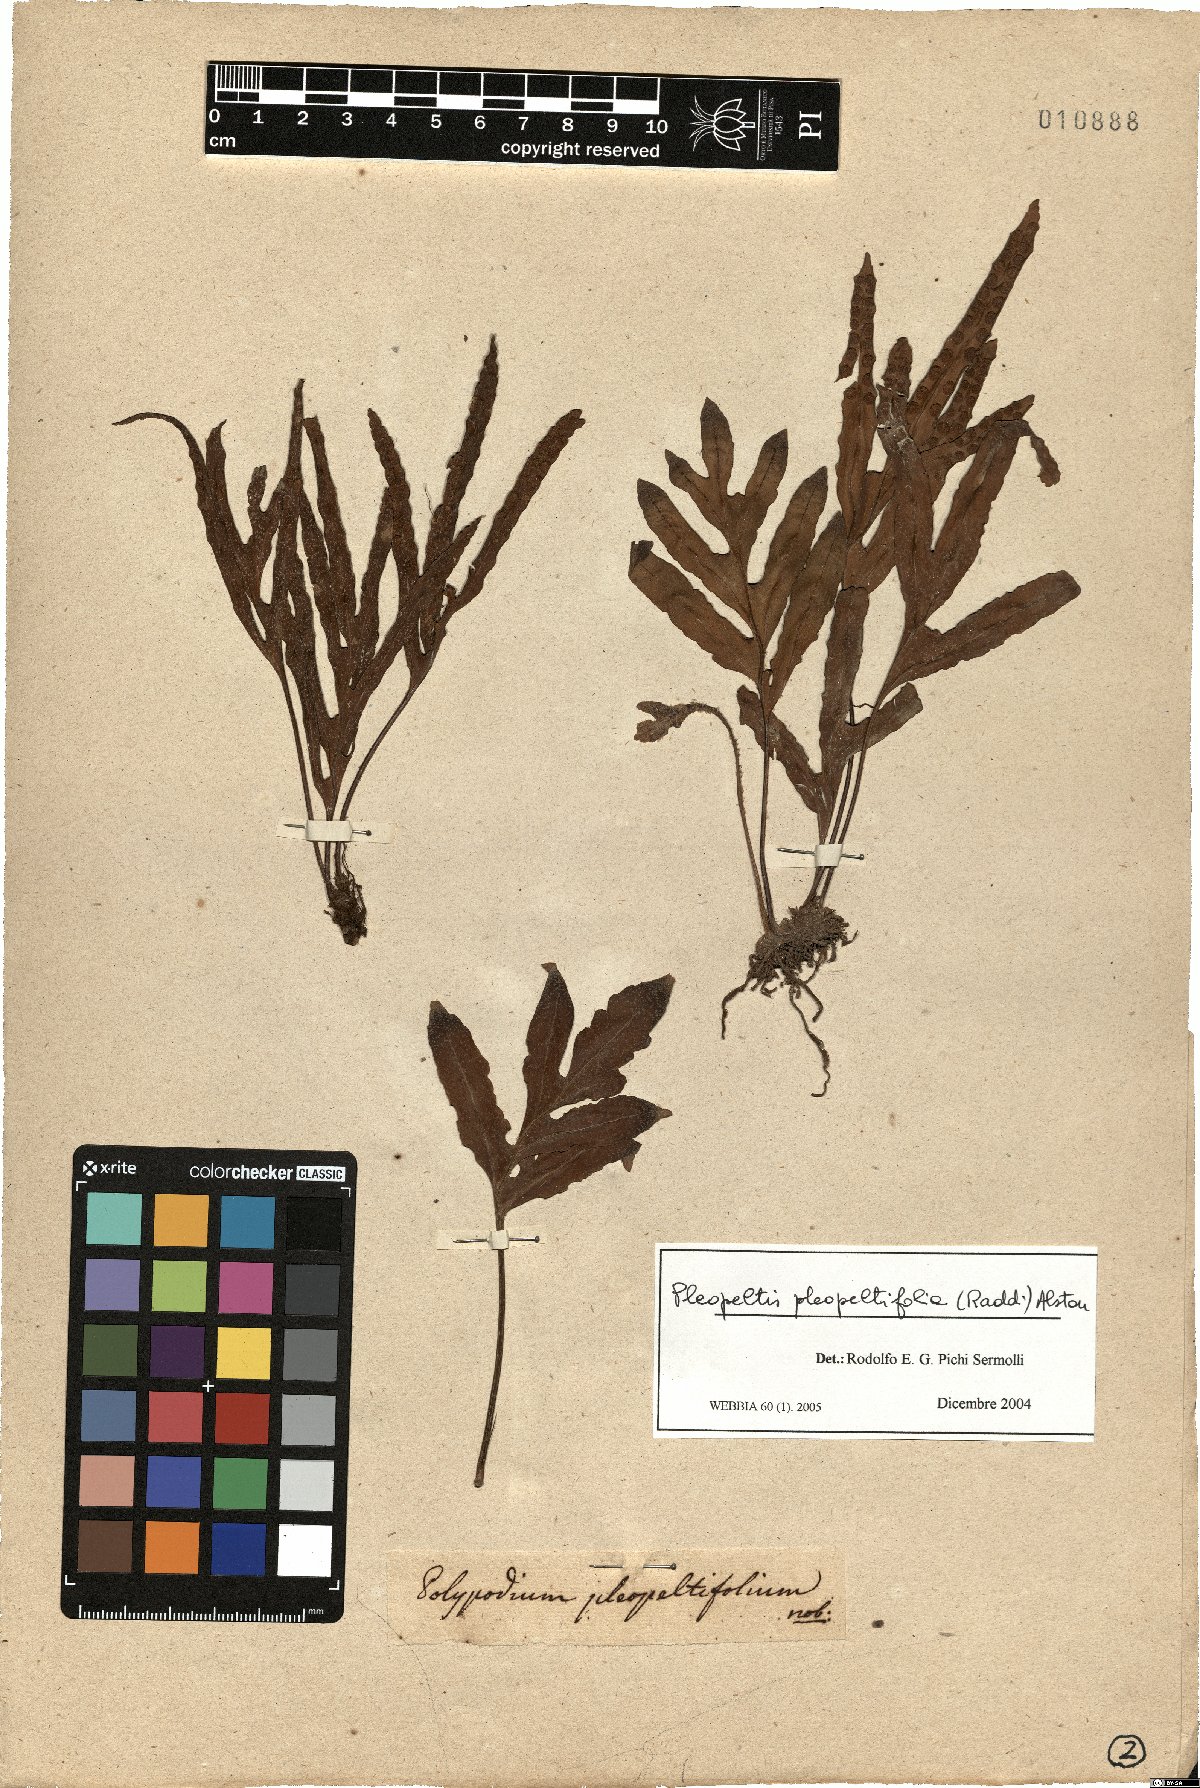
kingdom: Plantae
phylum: Tracheophyta
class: Polypodiopsida
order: Polypodiales
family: Polypodiaceae
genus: Pleopeltis
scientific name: Pleopeltis pleopeltifolia
